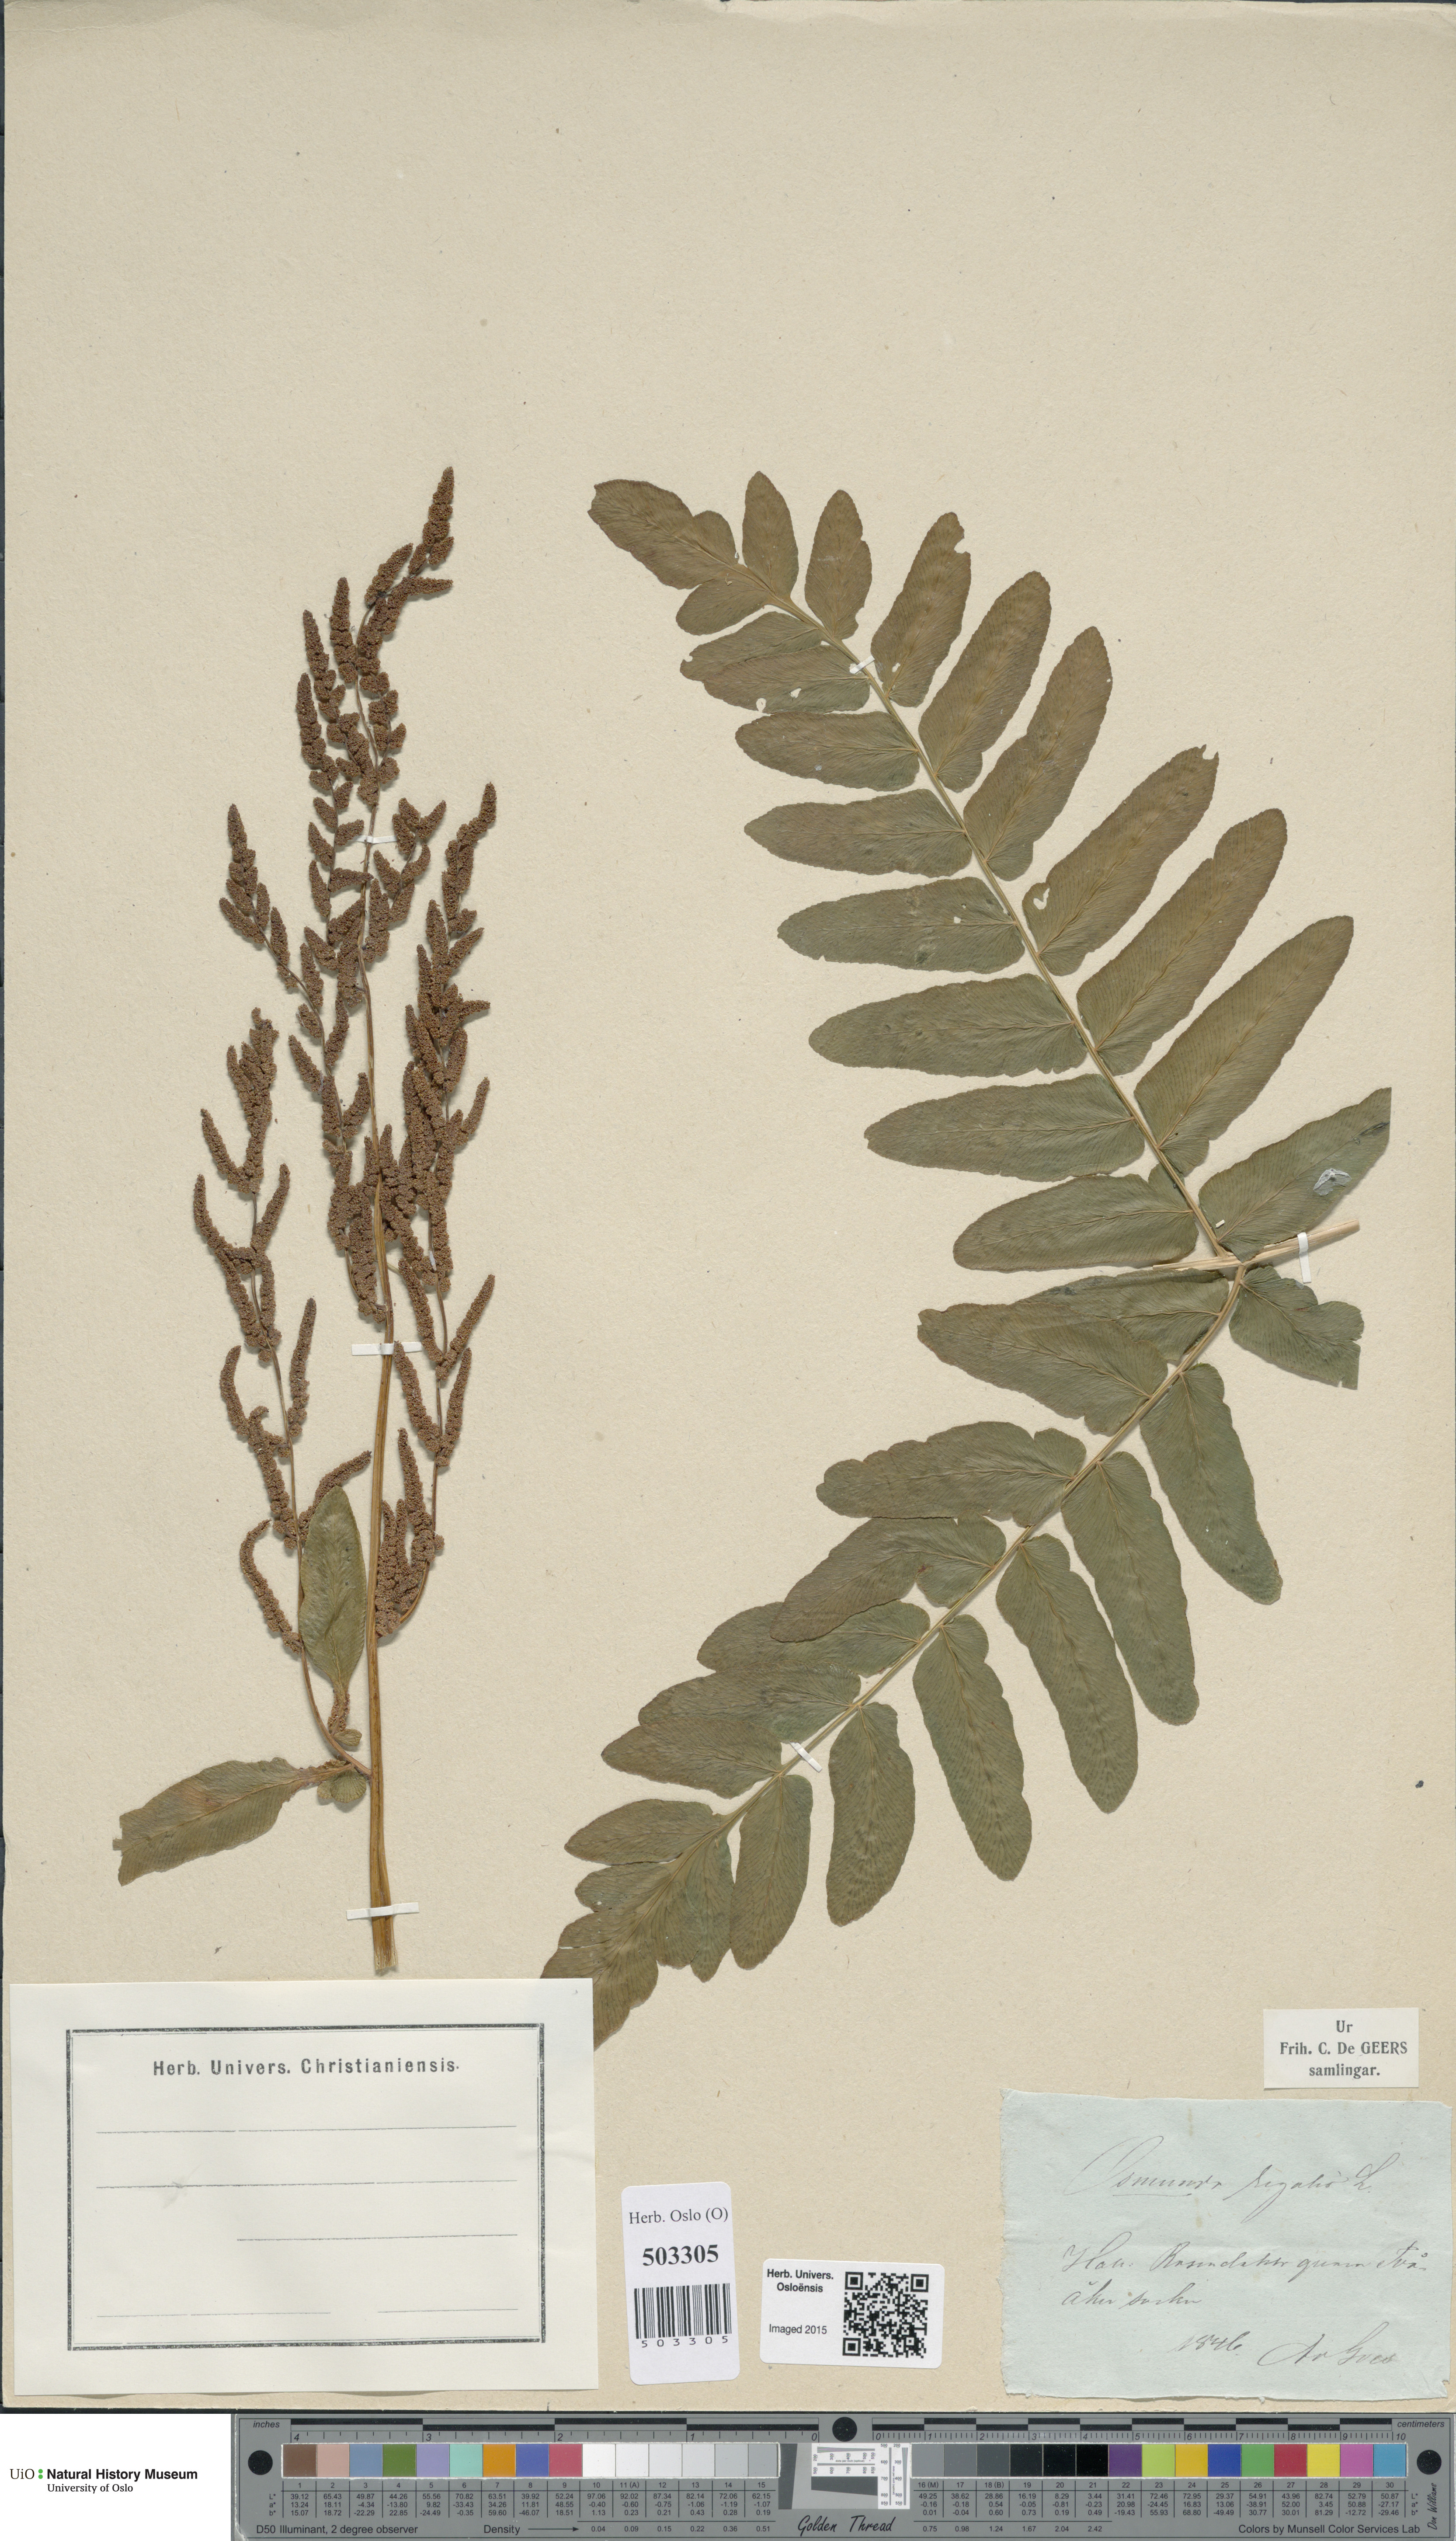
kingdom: Plantae
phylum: Tracheophyta
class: Polypodiopsida
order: Osmundales
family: Osmundaceae
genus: Osmunda
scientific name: Osmunda regalis
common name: Royal fern
